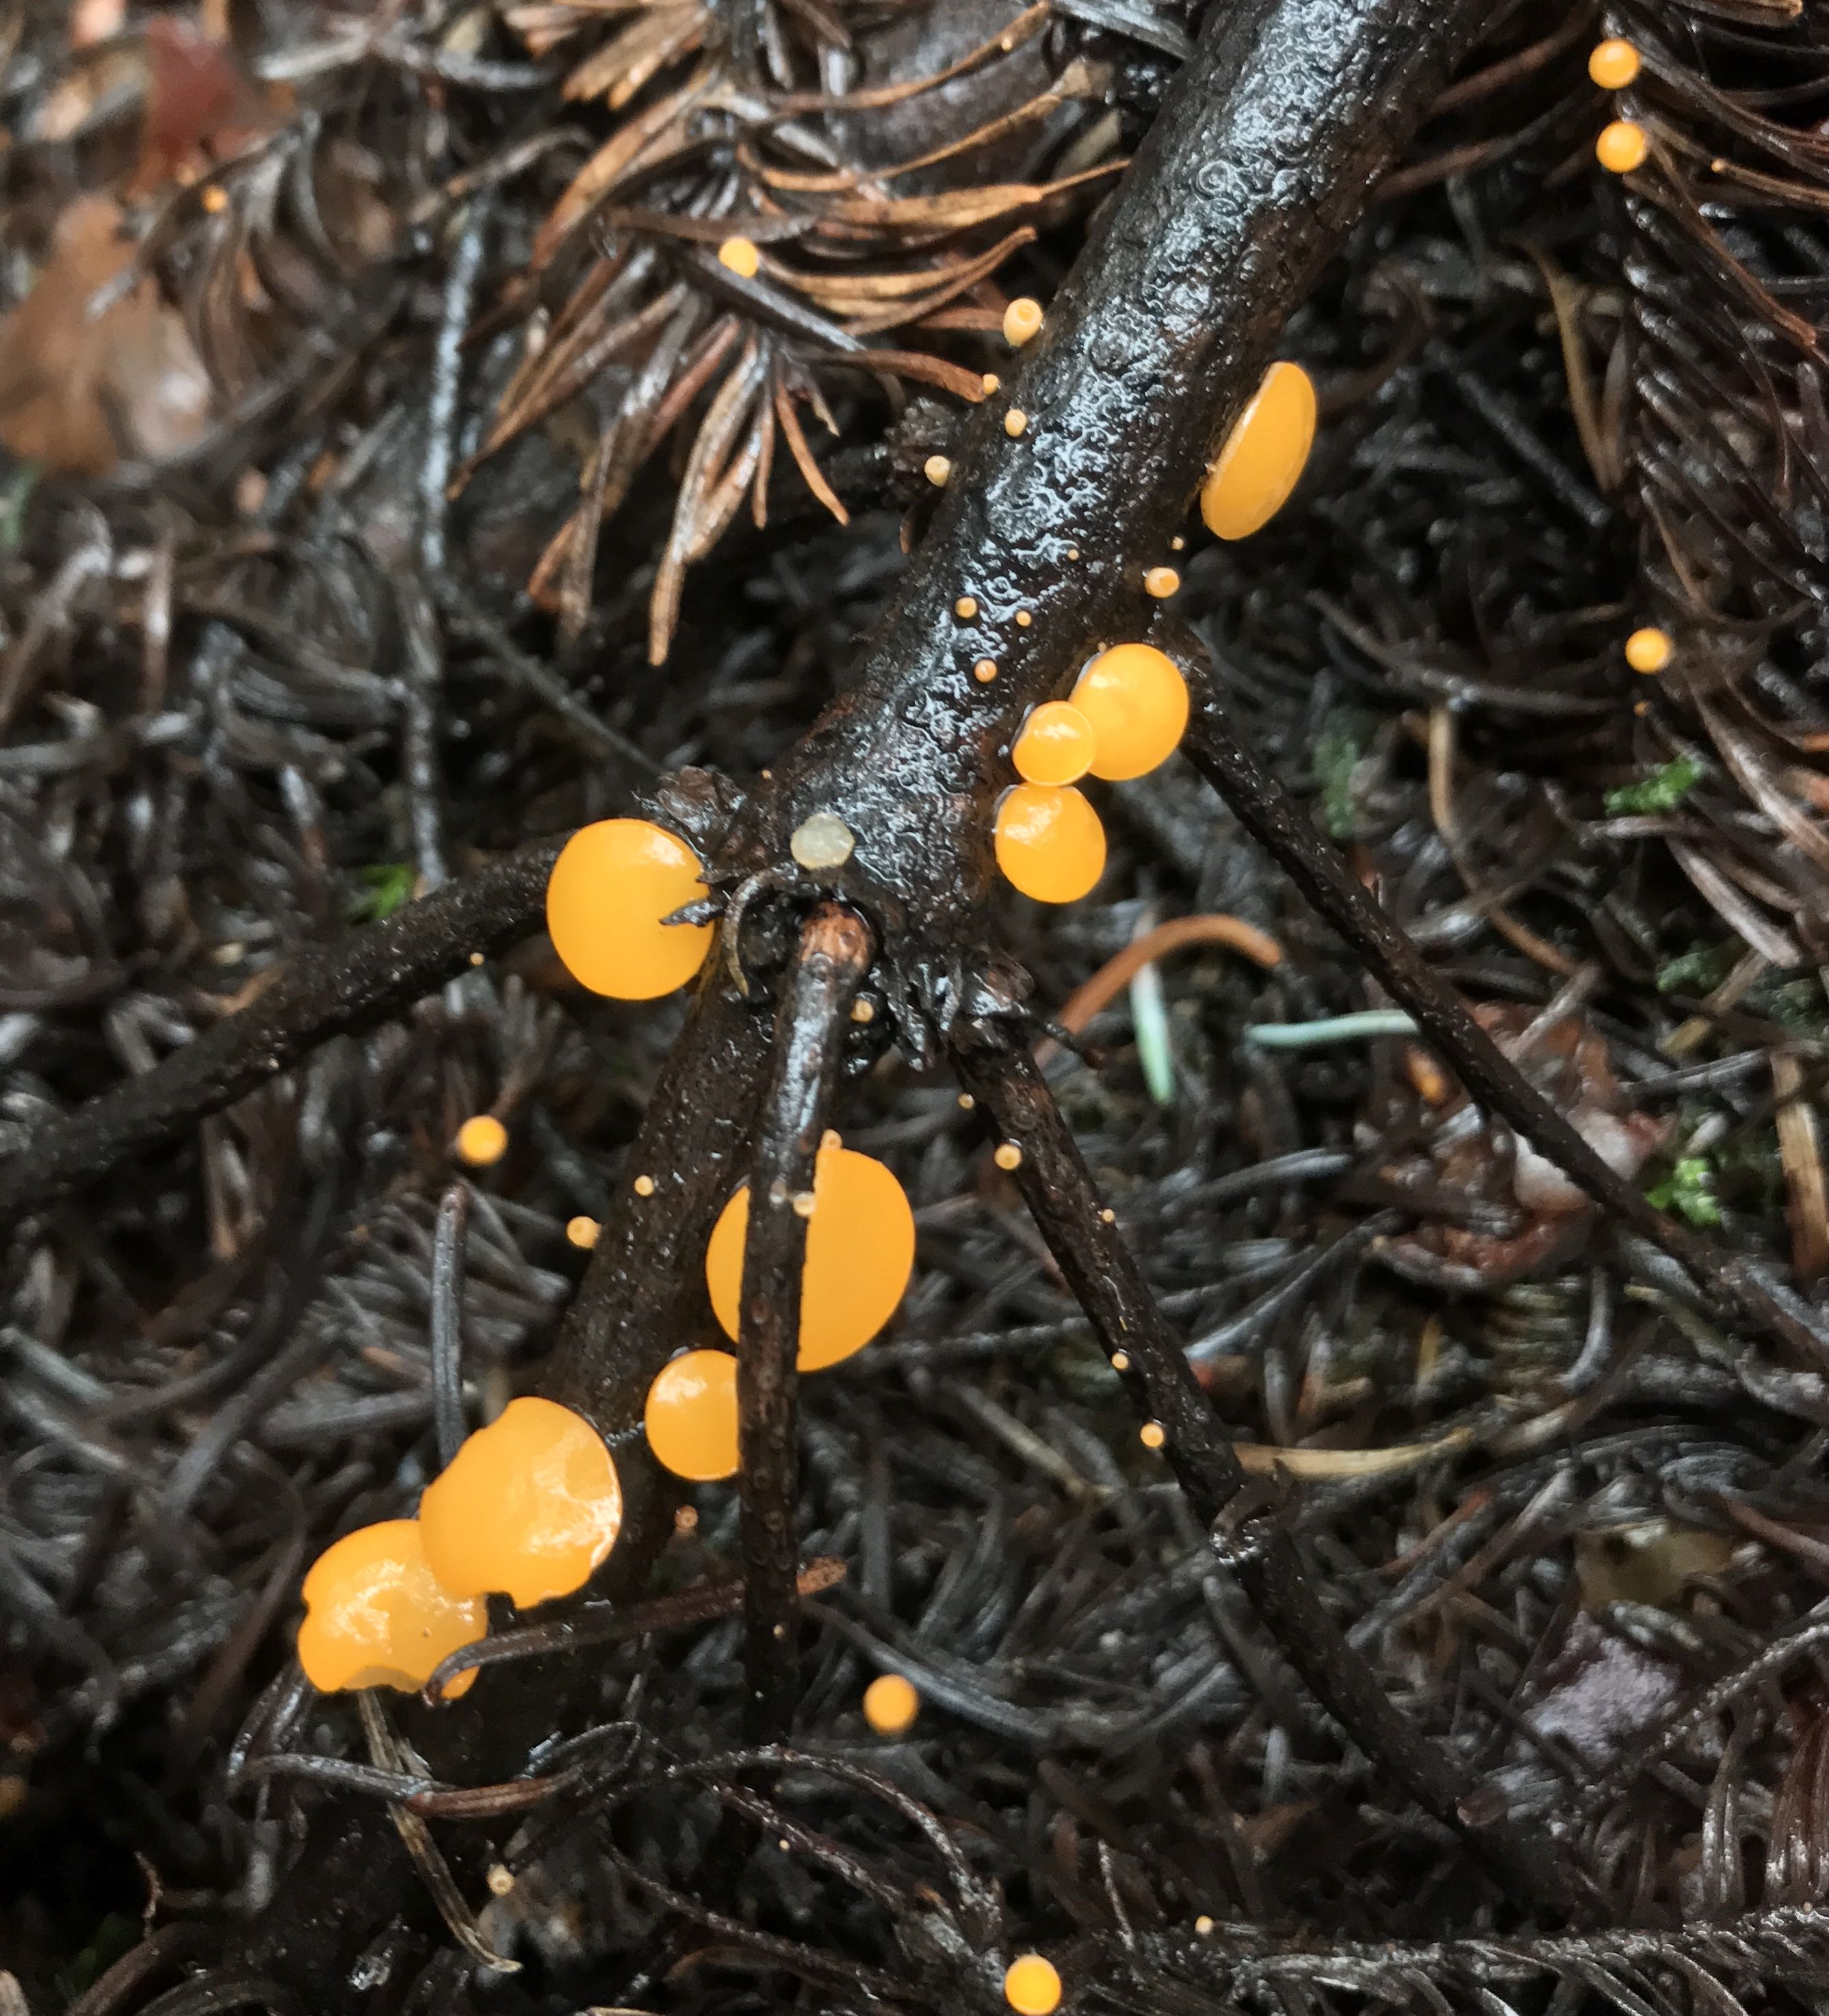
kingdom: Fungi
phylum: Ascomycota
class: Pezizomycetes
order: Pezizales
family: Sarcoscyphaceae
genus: Pithya
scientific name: Pithya vulgaris
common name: stor dukatbæger
